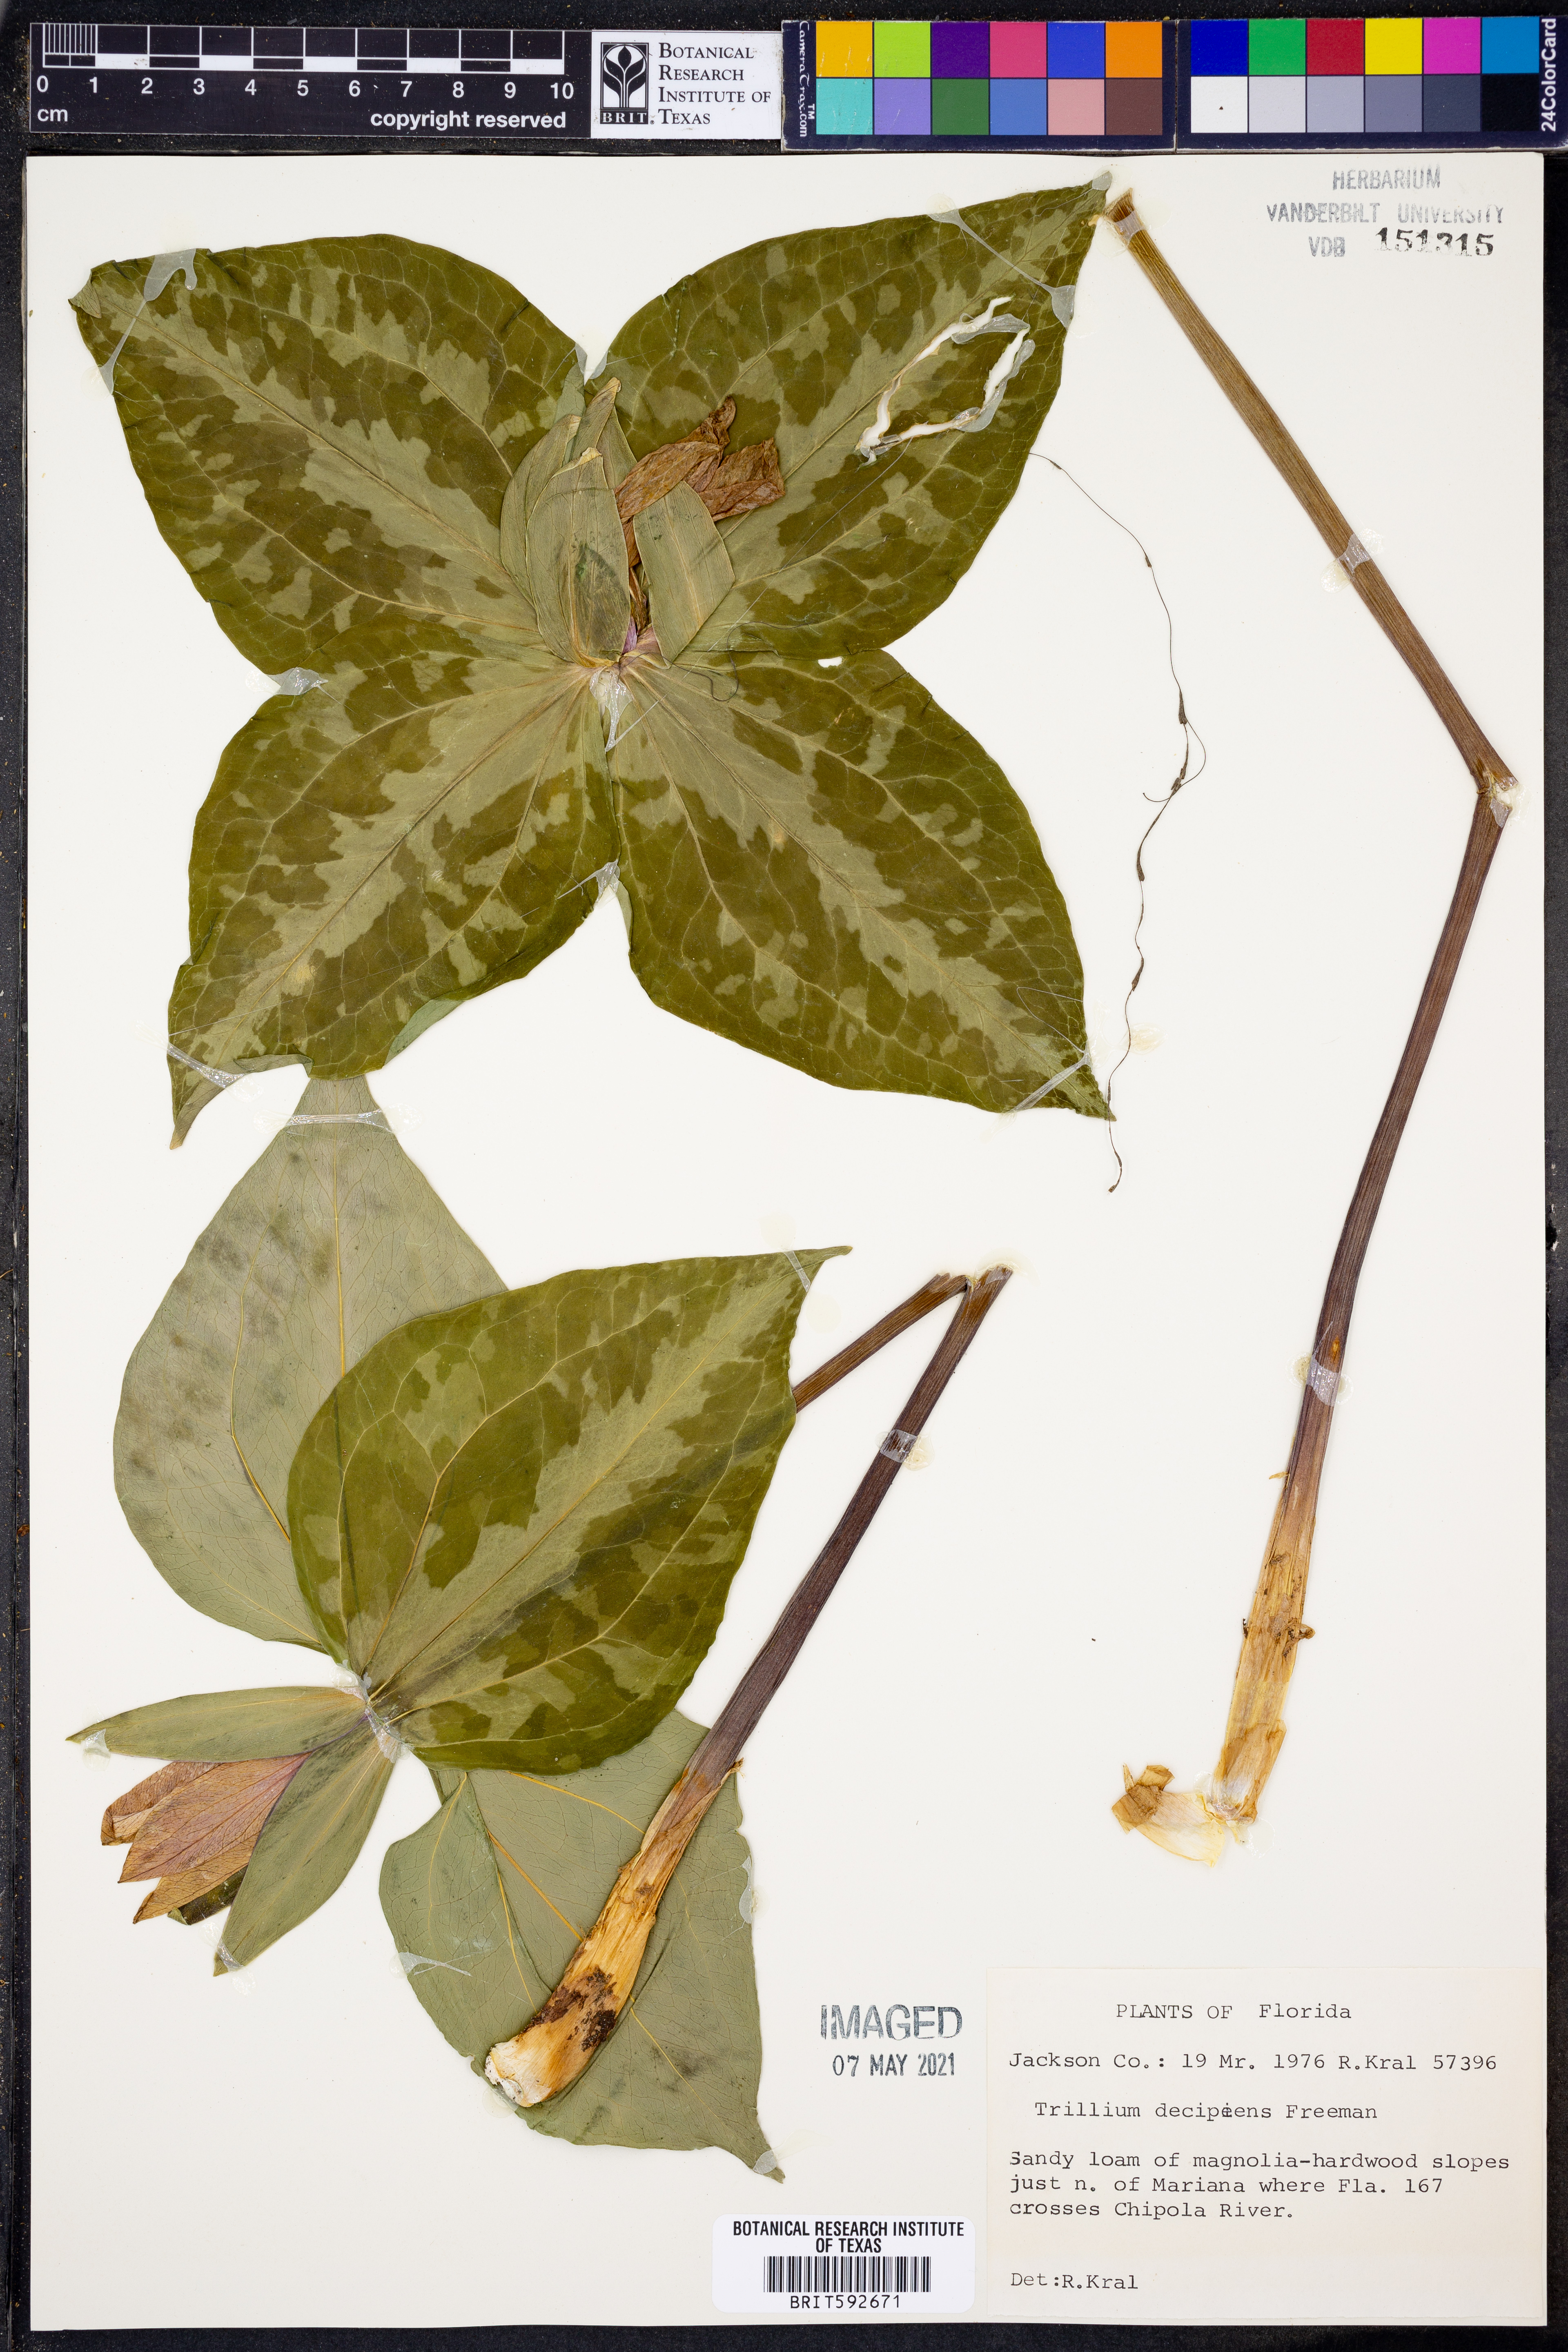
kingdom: Plantae
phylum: Tracheophyta
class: Liliopsida
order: Liliales
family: Melanthiaceae
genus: Trillium
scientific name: Trillium decipiens
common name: Chattahoochee river trillium
